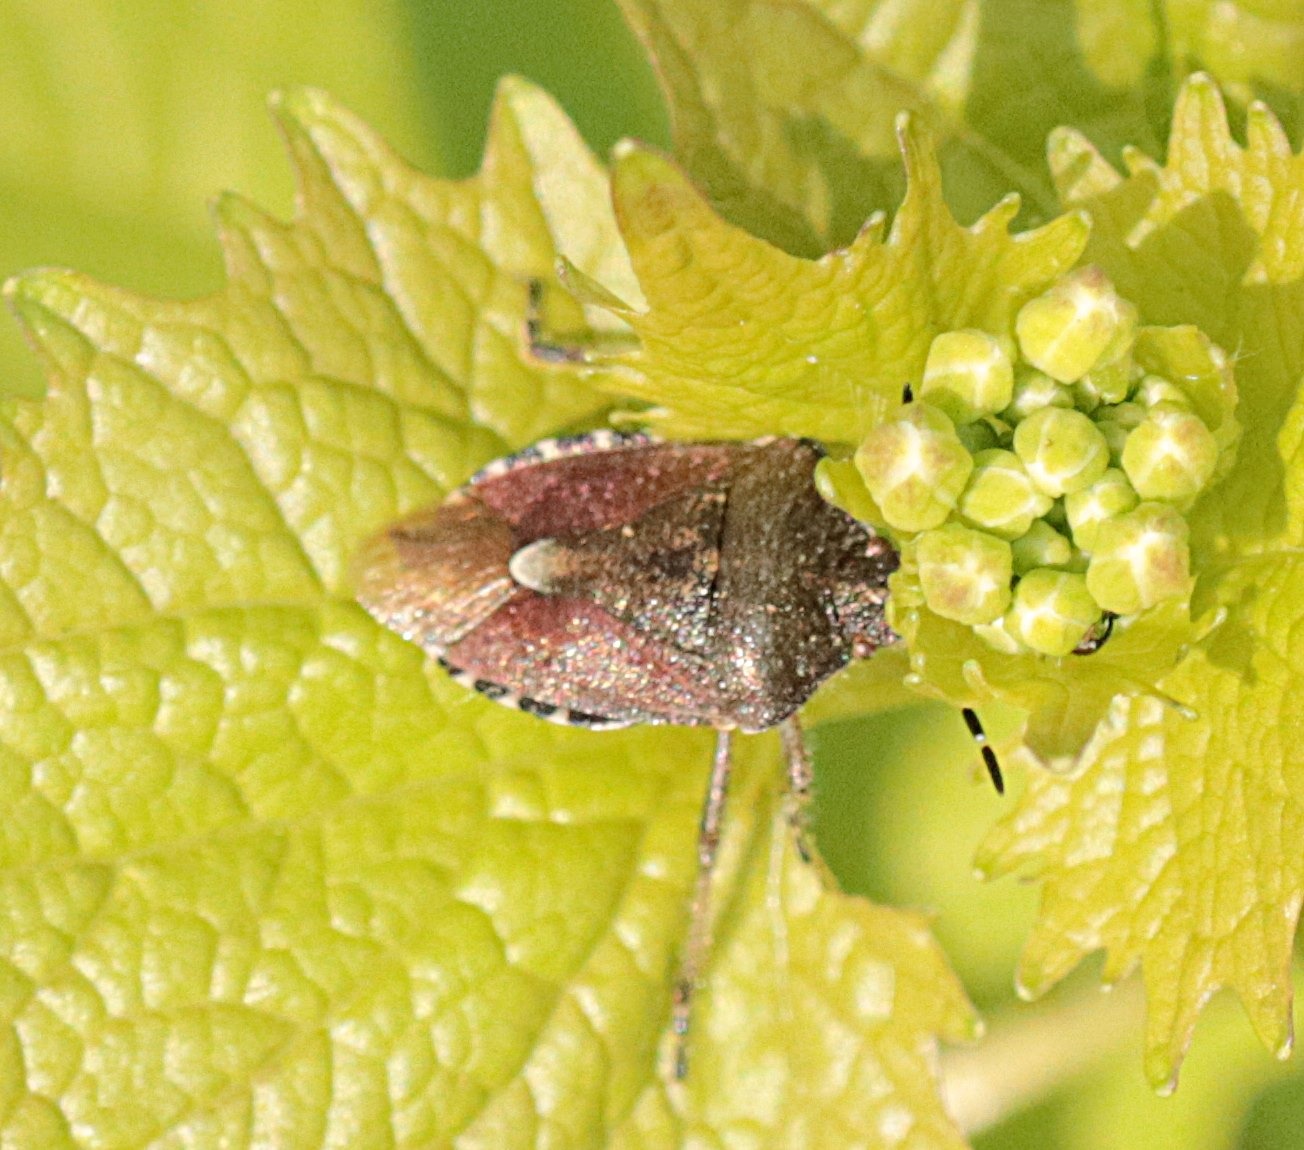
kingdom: Animalia
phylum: Arthropoda
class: Insecta
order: Hemiptera
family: Pentatomidae
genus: Dolycoris
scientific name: Dolycoris baccarum
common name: Almindelig bærtæge
